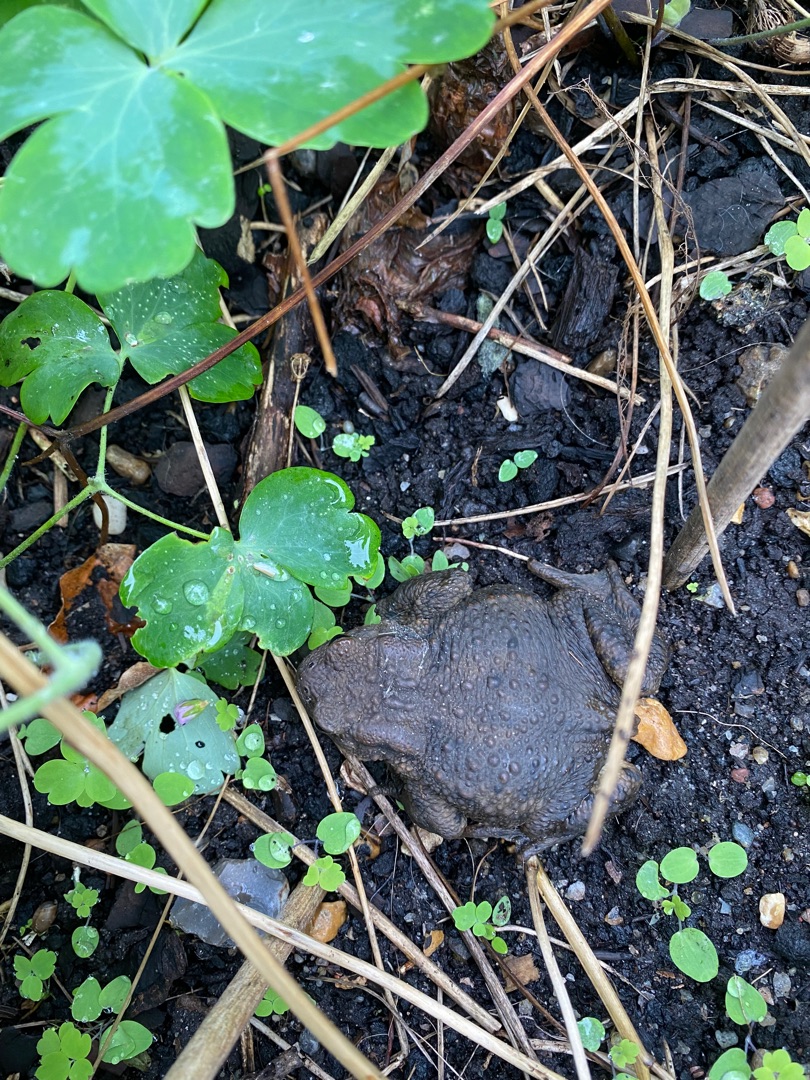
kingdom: Animalia
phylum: Chordata
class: Amphibia
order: Anura
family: Bufonidae
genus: Bufo
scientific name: Bufo bufo
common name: Skrubtudse
